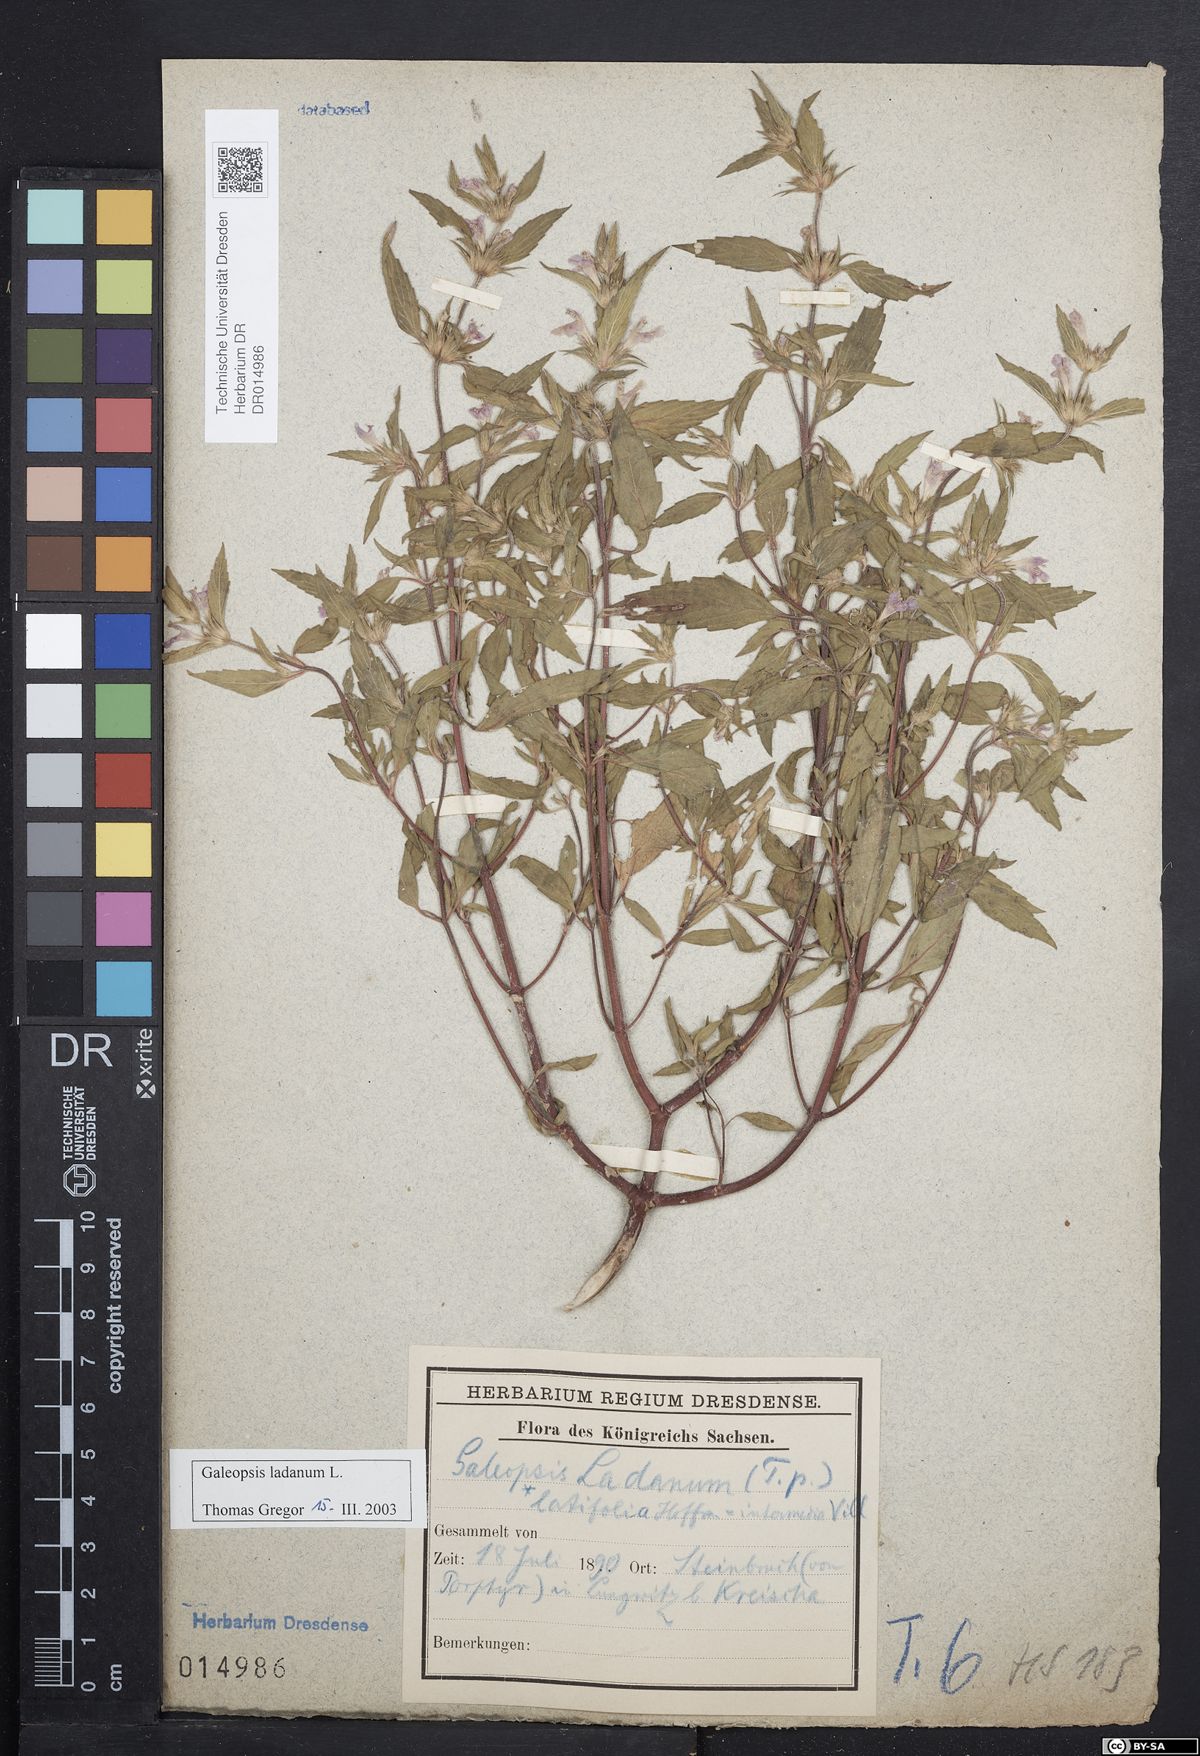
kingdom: Plantae
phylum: Tracheophyta
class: Magnoliopsida
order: Lamiales
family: Lamiaceae
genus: Galeopsis
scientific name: Galeopsis ladanum
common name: Broad-leaved hemp-nettle
